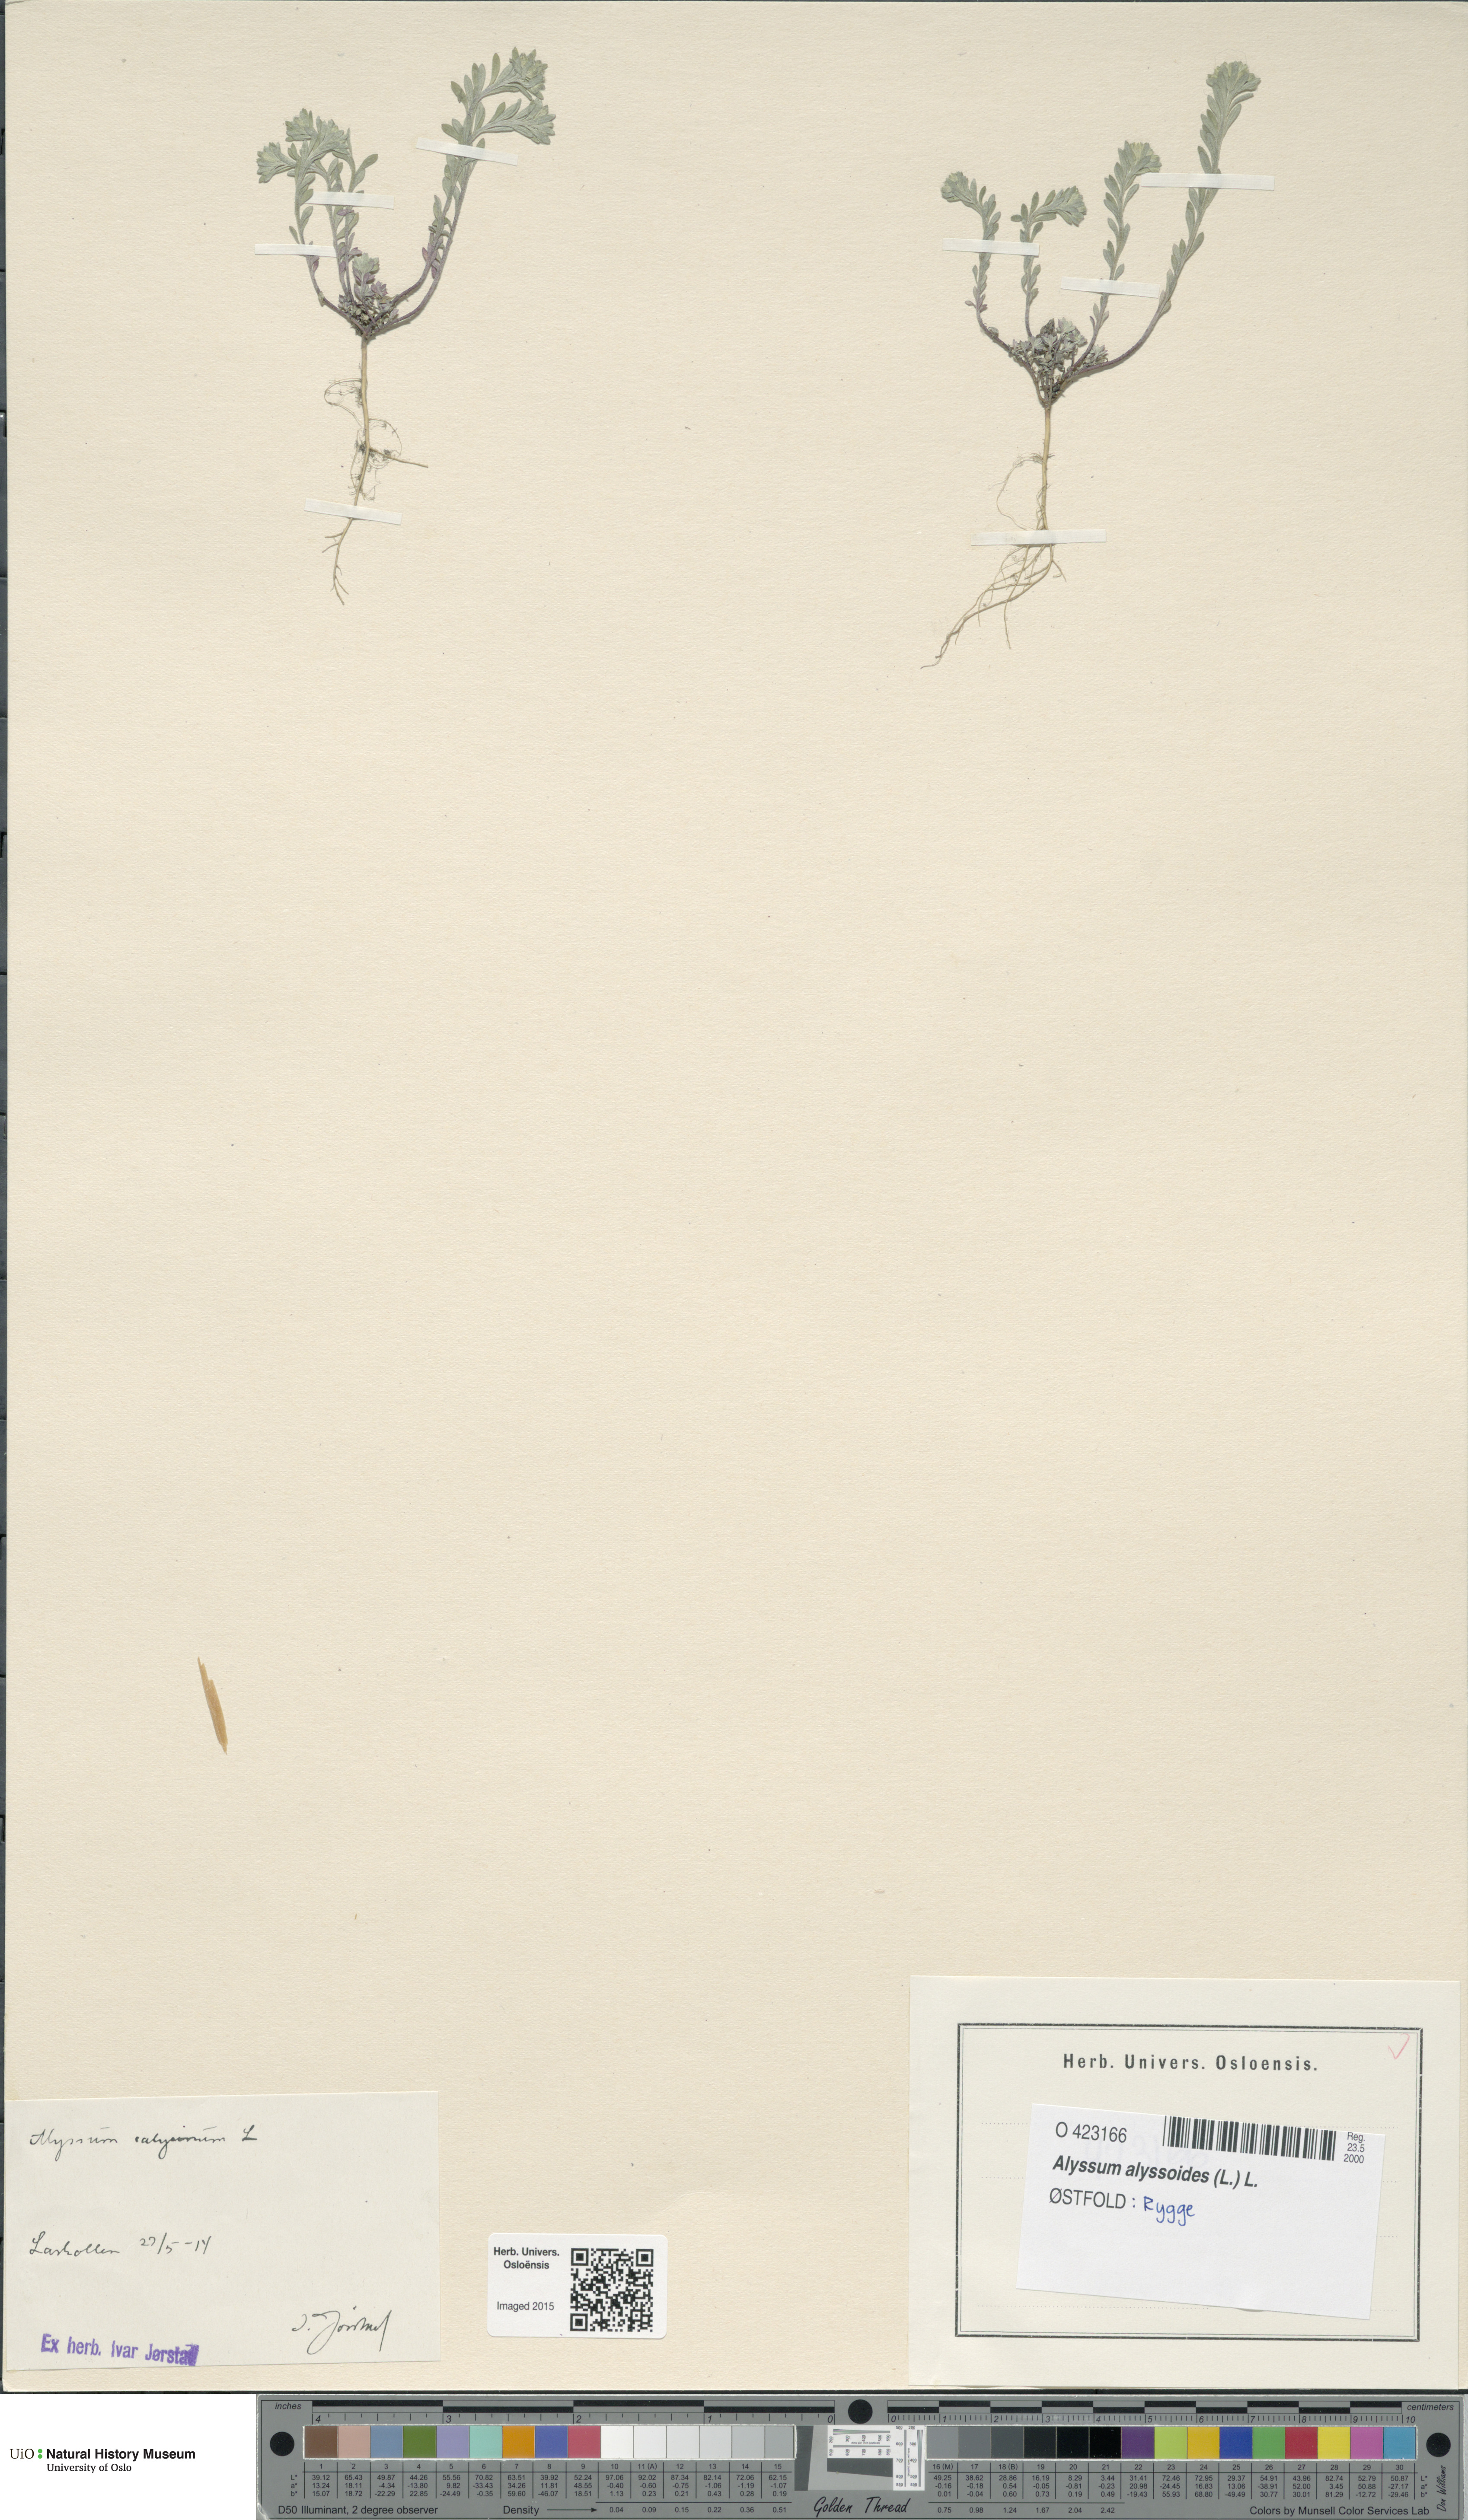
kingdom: Plantae
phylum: Tracheophyta
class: Magnoliopsida
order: Brassicales
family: Brassicaceae
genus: Alyssum
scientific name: Alyssum alyssoides
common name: Small alison
